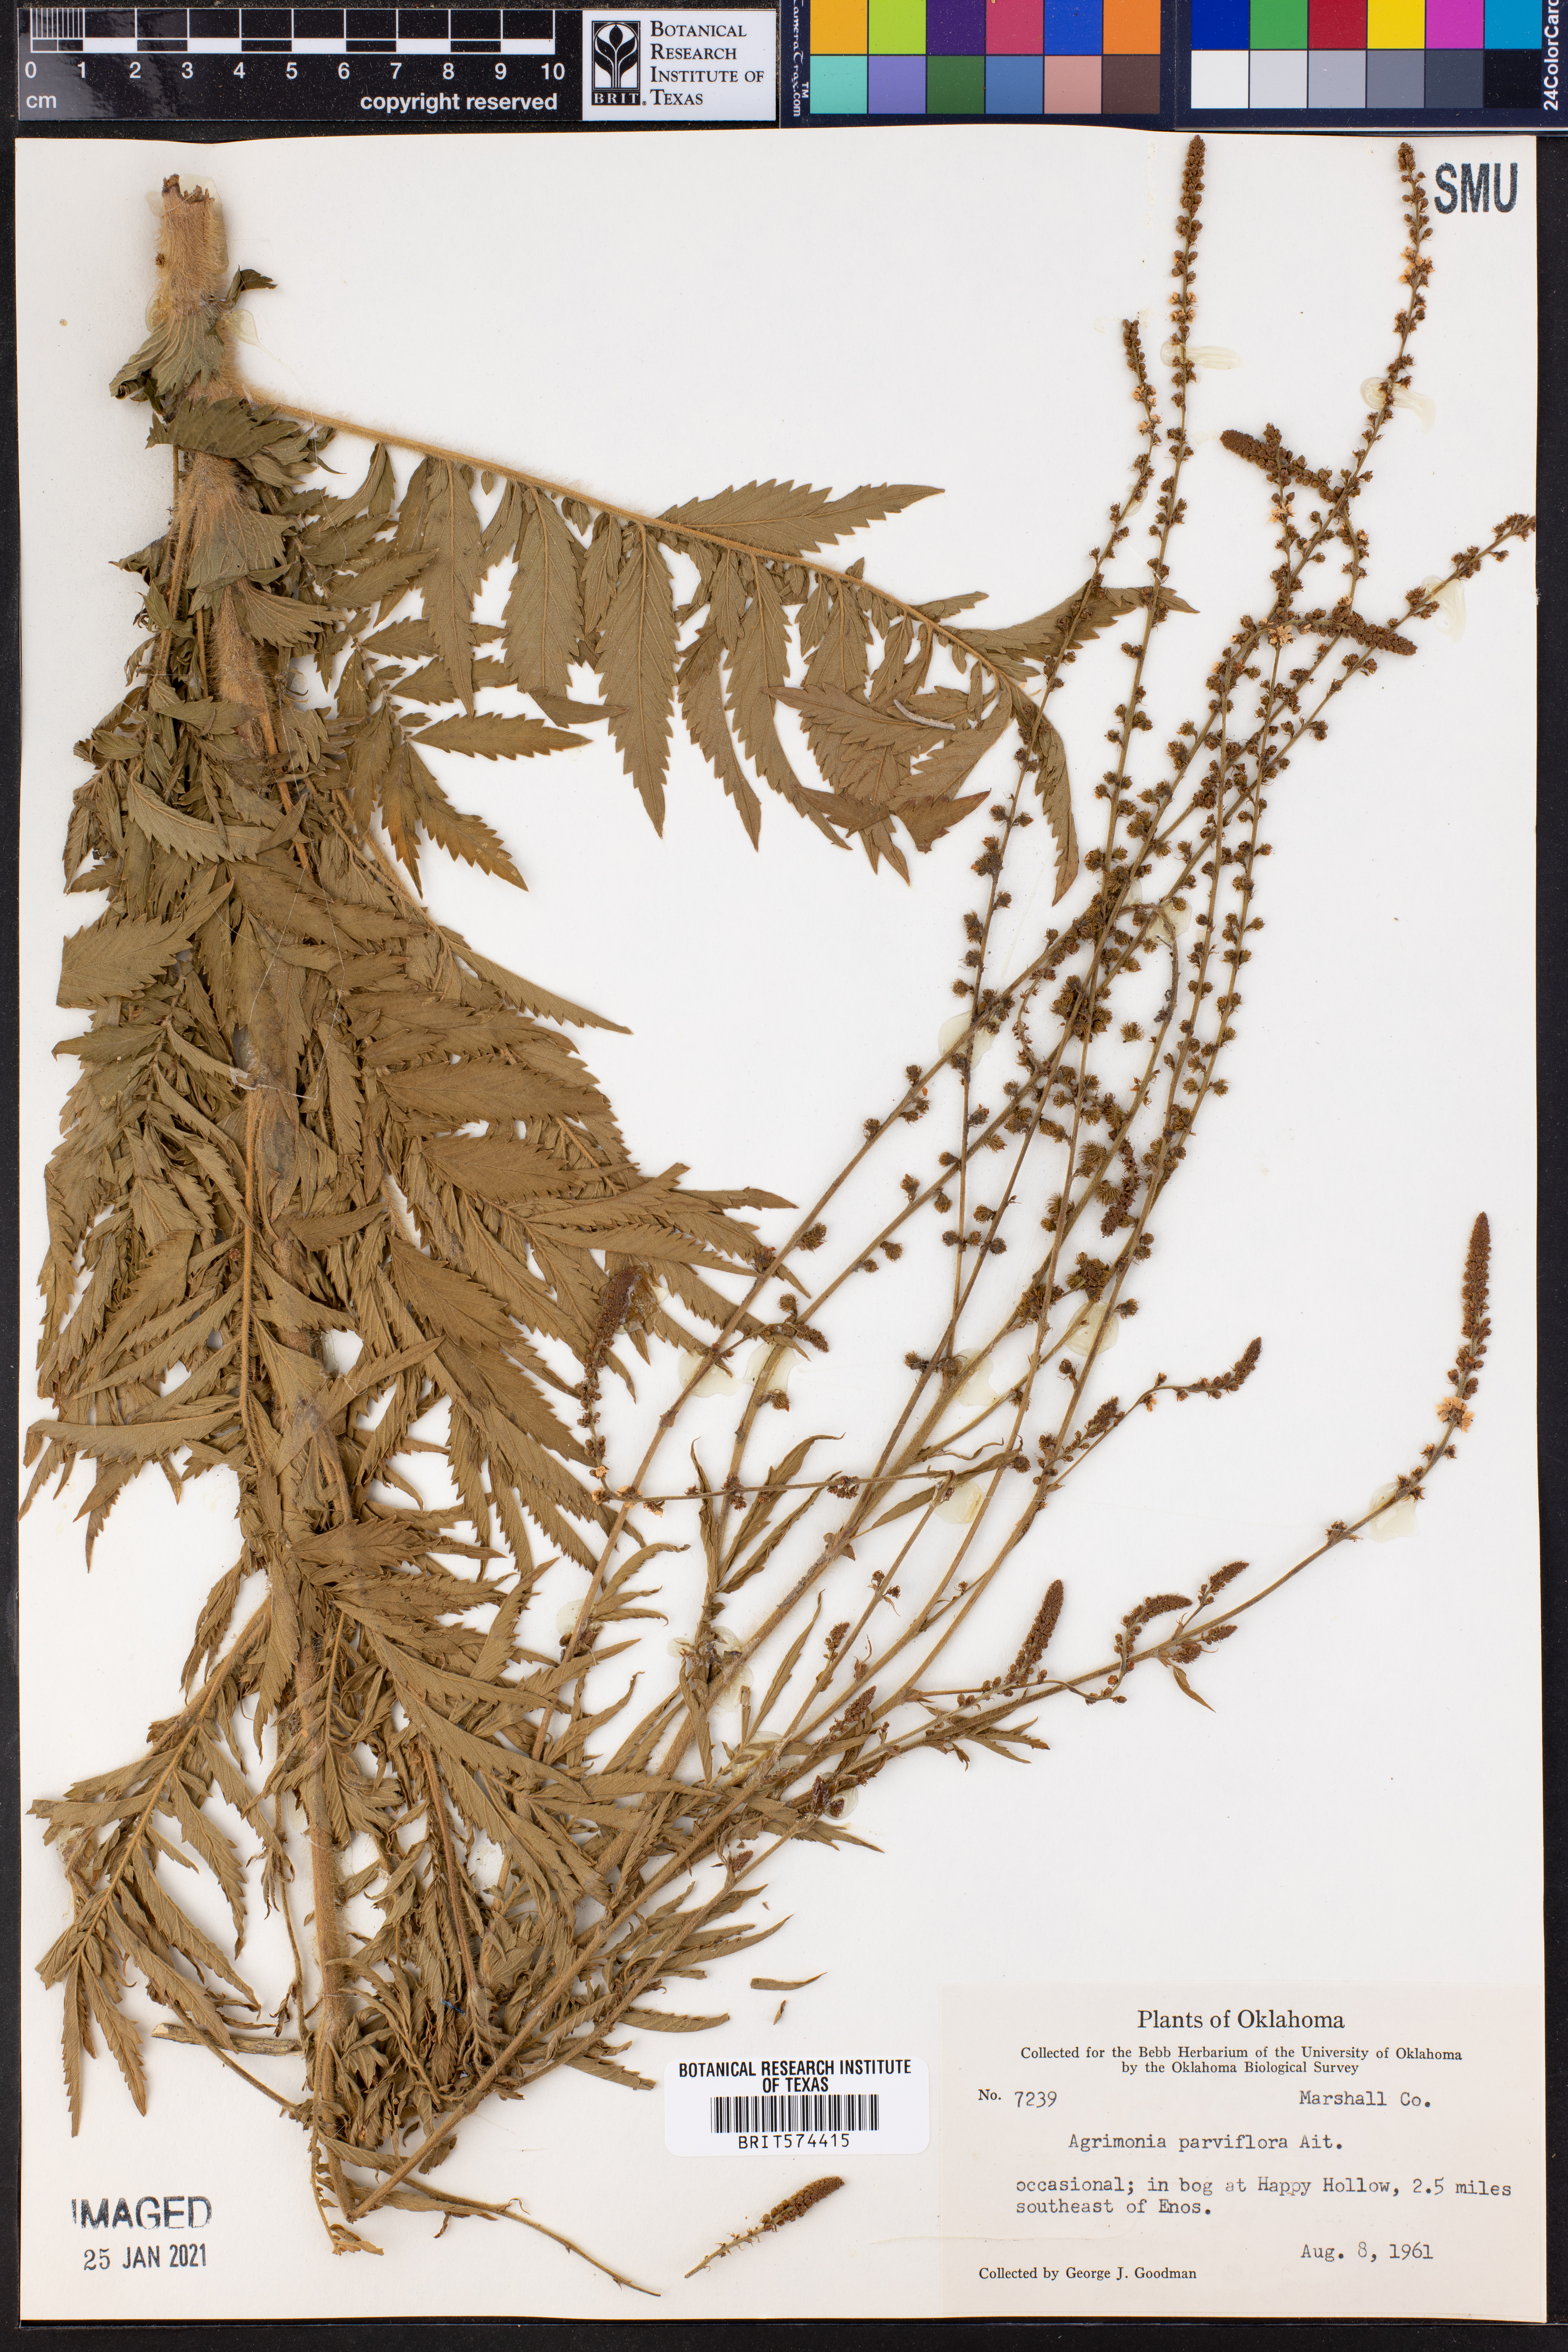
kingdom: Plantae
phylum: Tracheophyta
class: Magnoliopsida
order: Rosales
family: Rosaceae
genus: Agrimonia
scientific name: Agrimonia parviflora
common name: Harvest-lice
